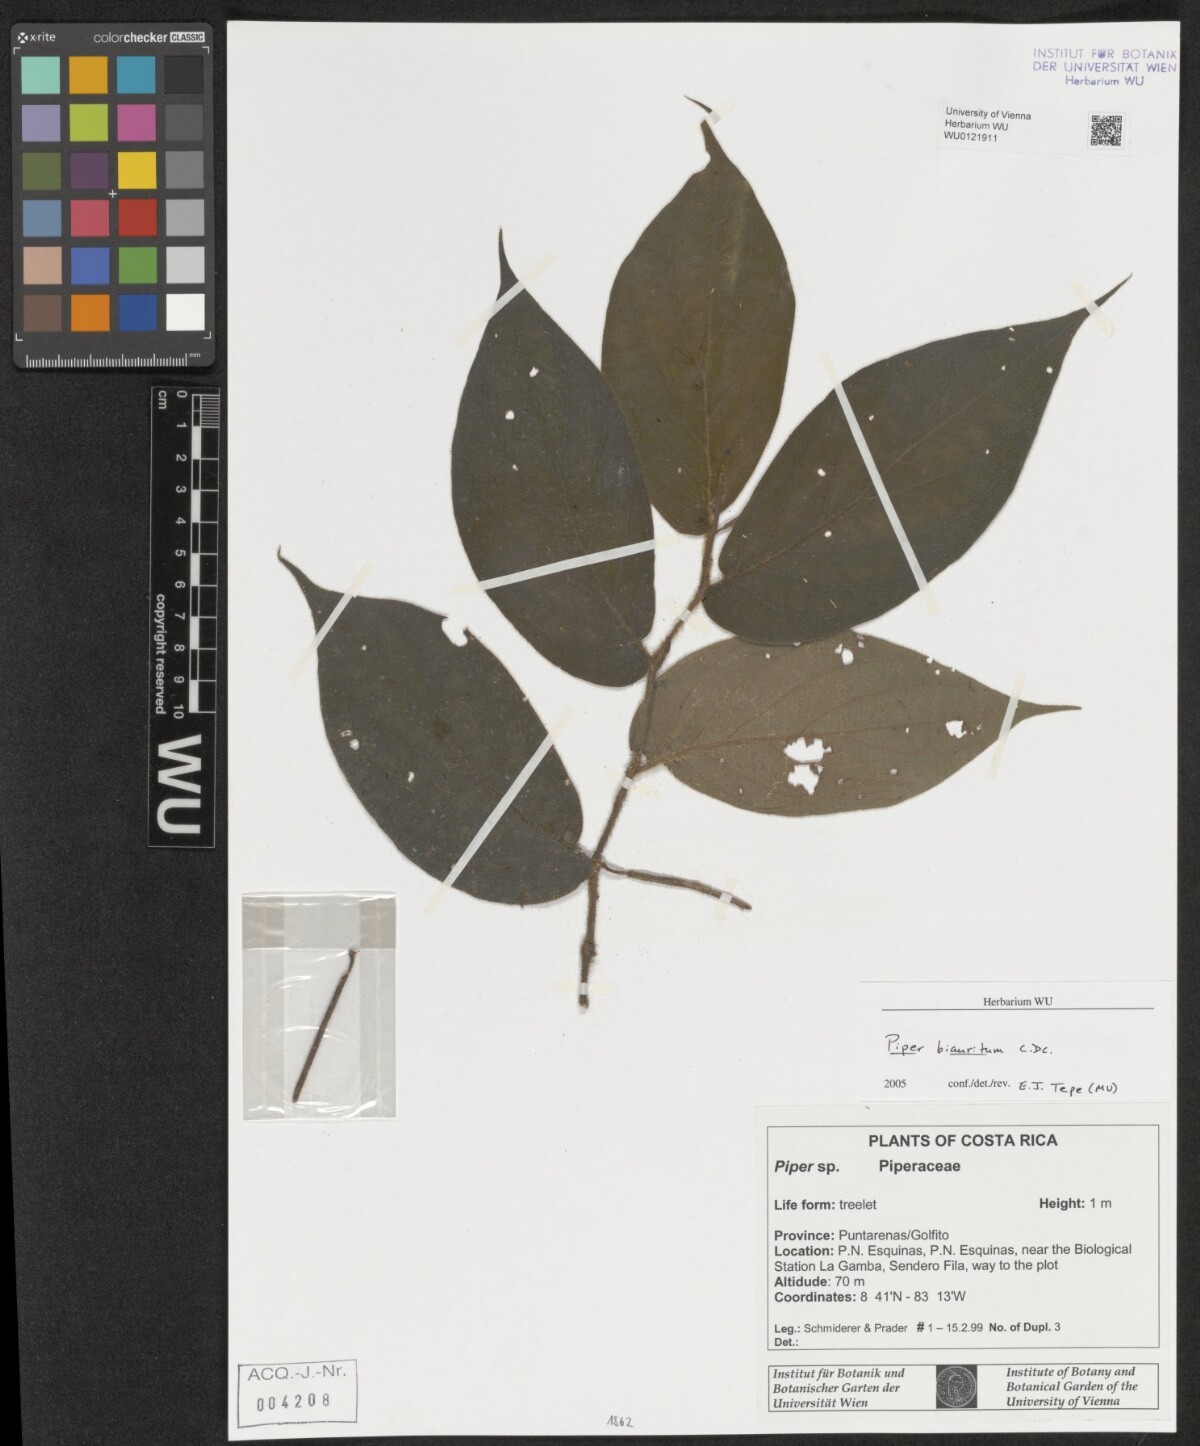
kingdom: Plantae
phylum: Tracheophyta
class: Magnoliopsida
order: Piperales
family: Piperaceae
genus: Piper
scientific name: Piper biauritum
